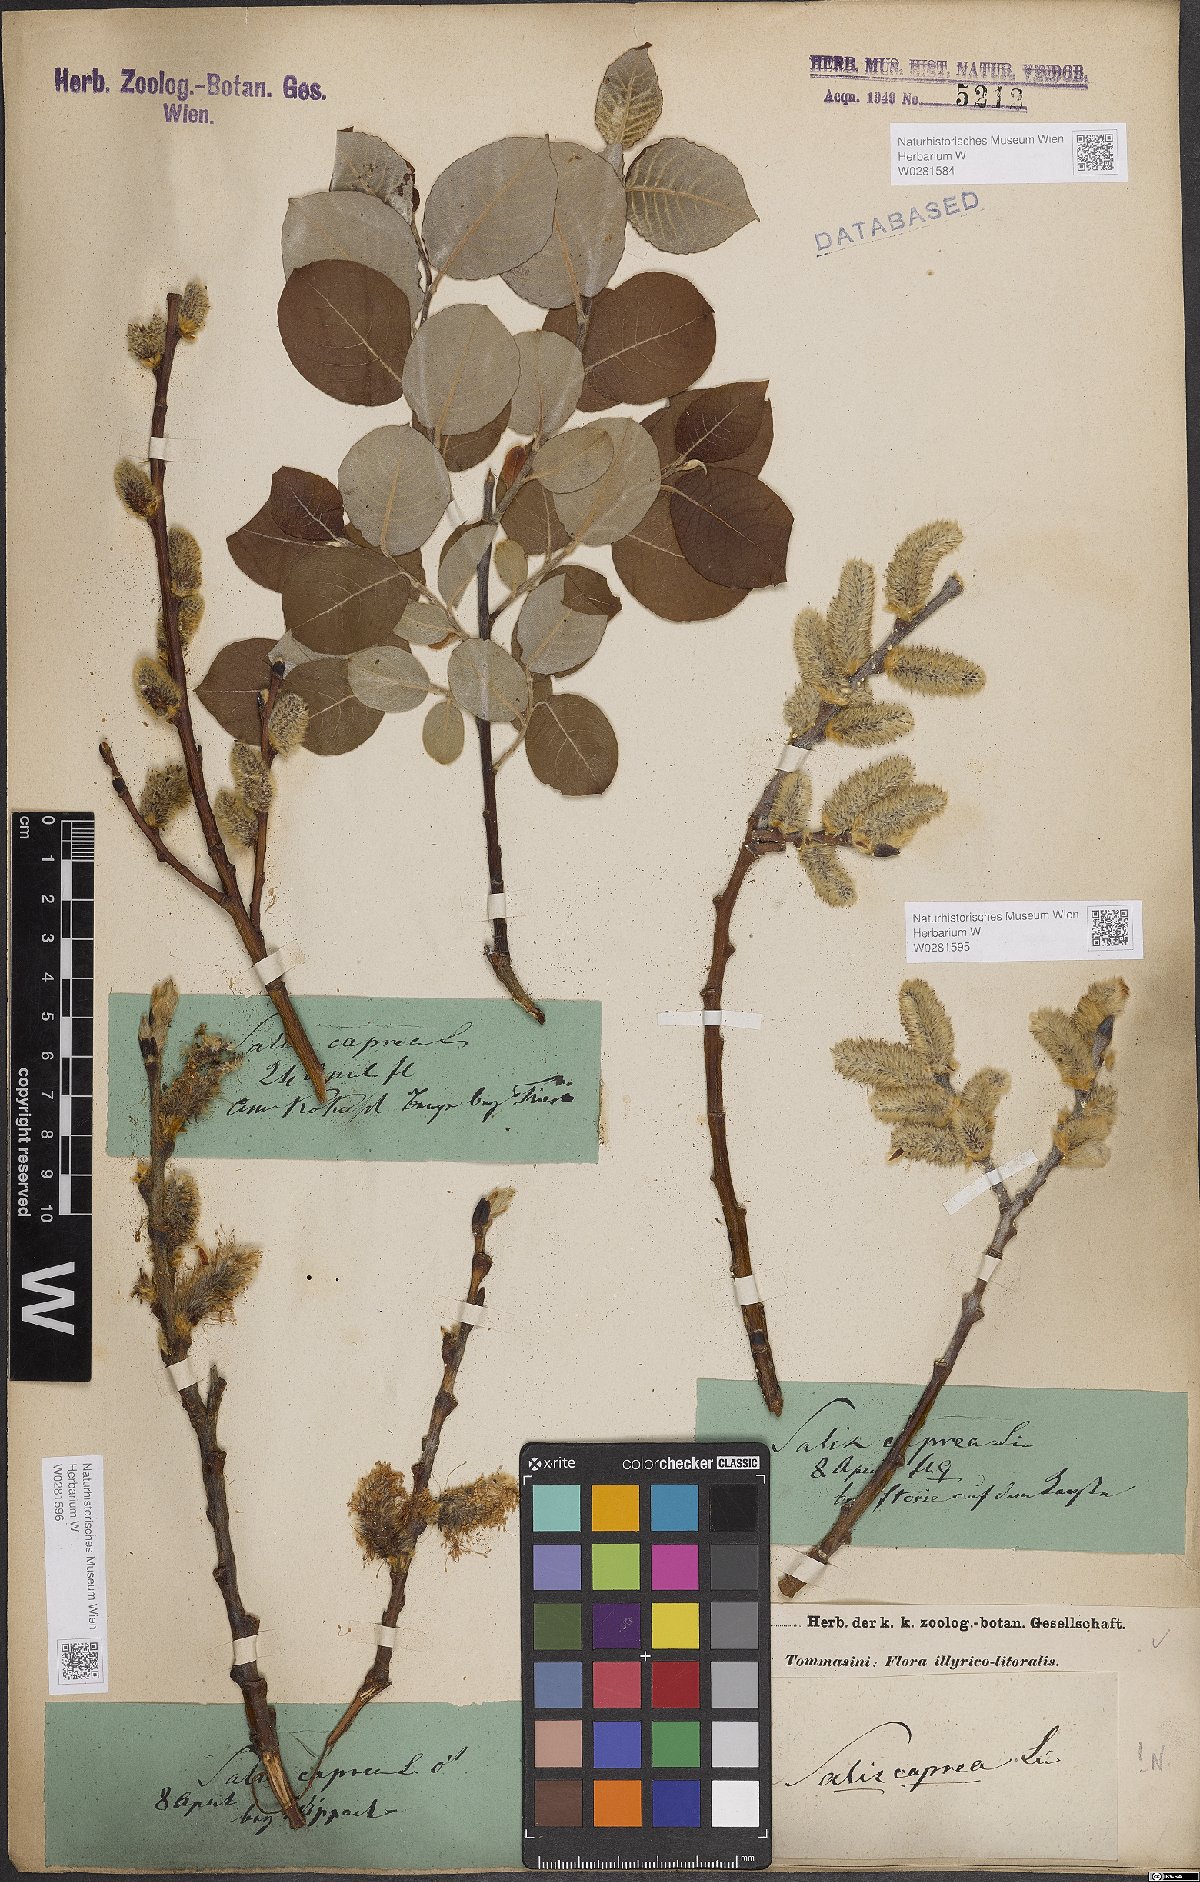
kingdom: Plantae
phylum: Tracheophyta
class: Magnoliopsida
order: Malpighiales
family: Salicaceae
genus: Salix
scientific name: Salix caprea
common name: Goat willow
